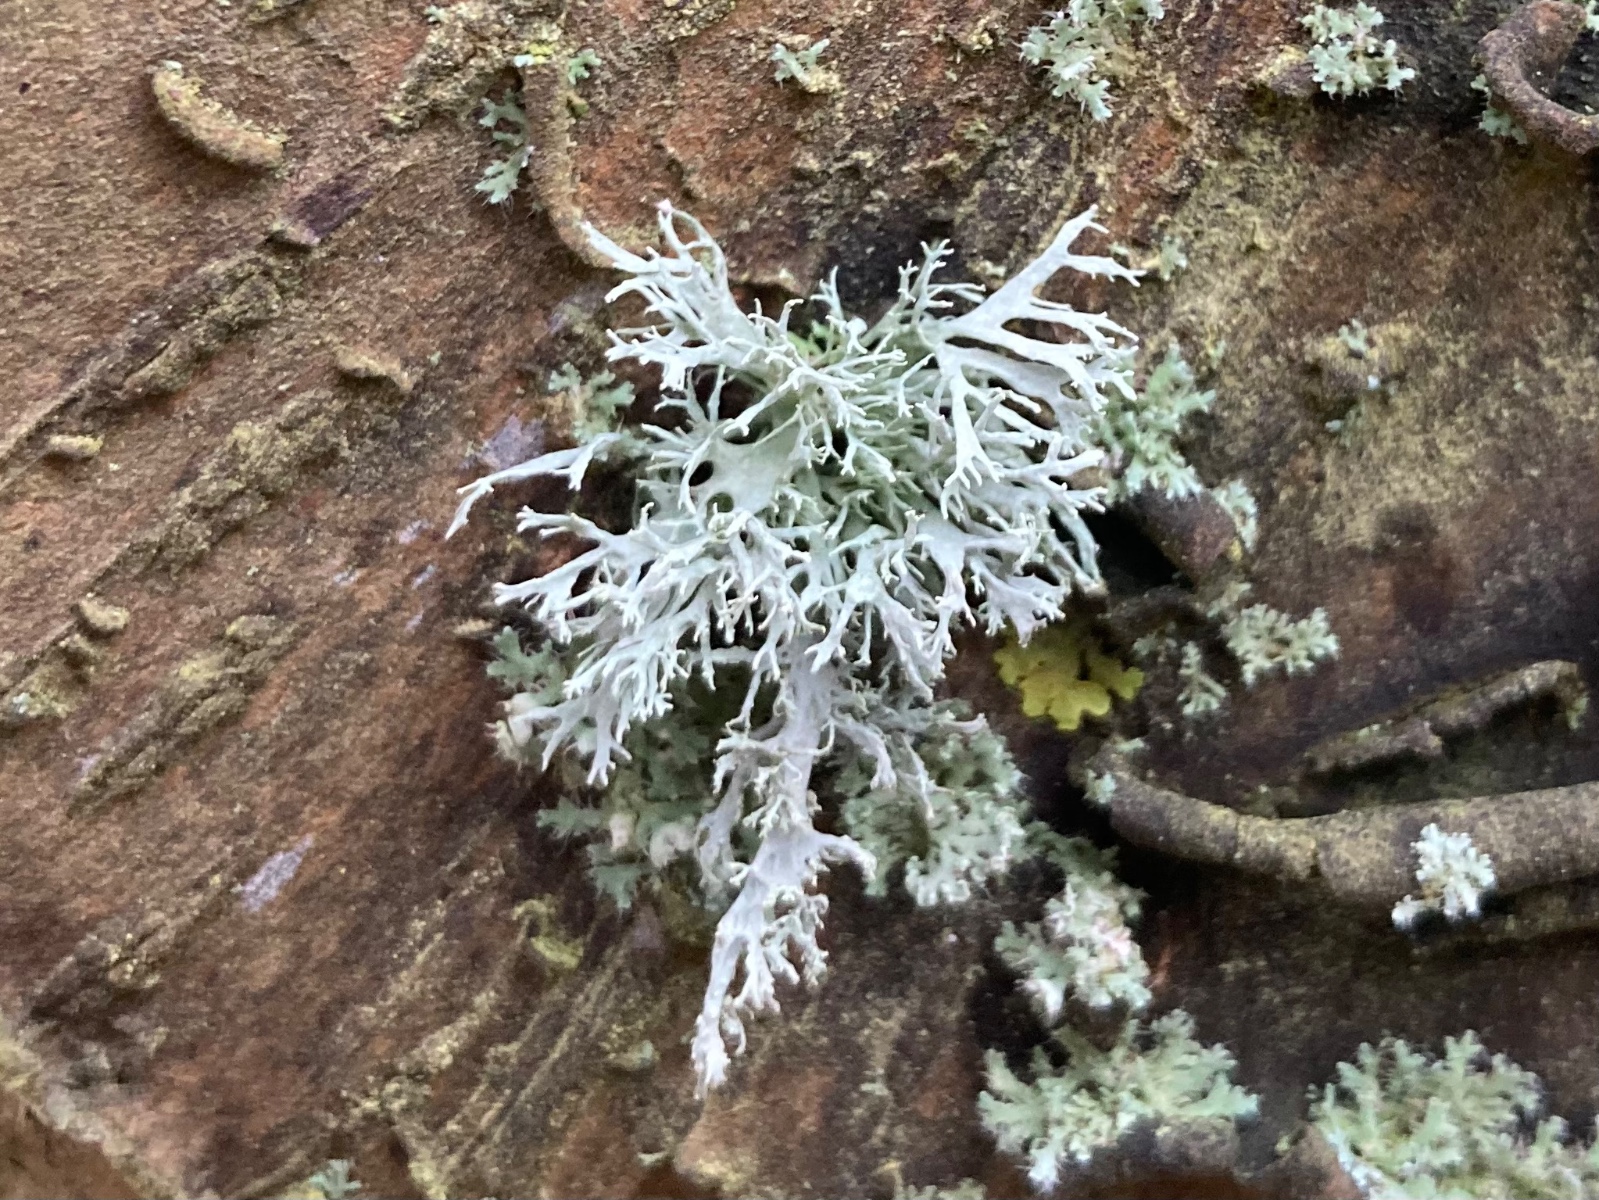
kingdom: Fungi
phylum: Ascomycota
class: Lecanoromycetes
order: Lecanorales
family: Parmeliaceae
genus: Evernia
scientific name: Evernia prunastri
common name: almindelig slåenlav
